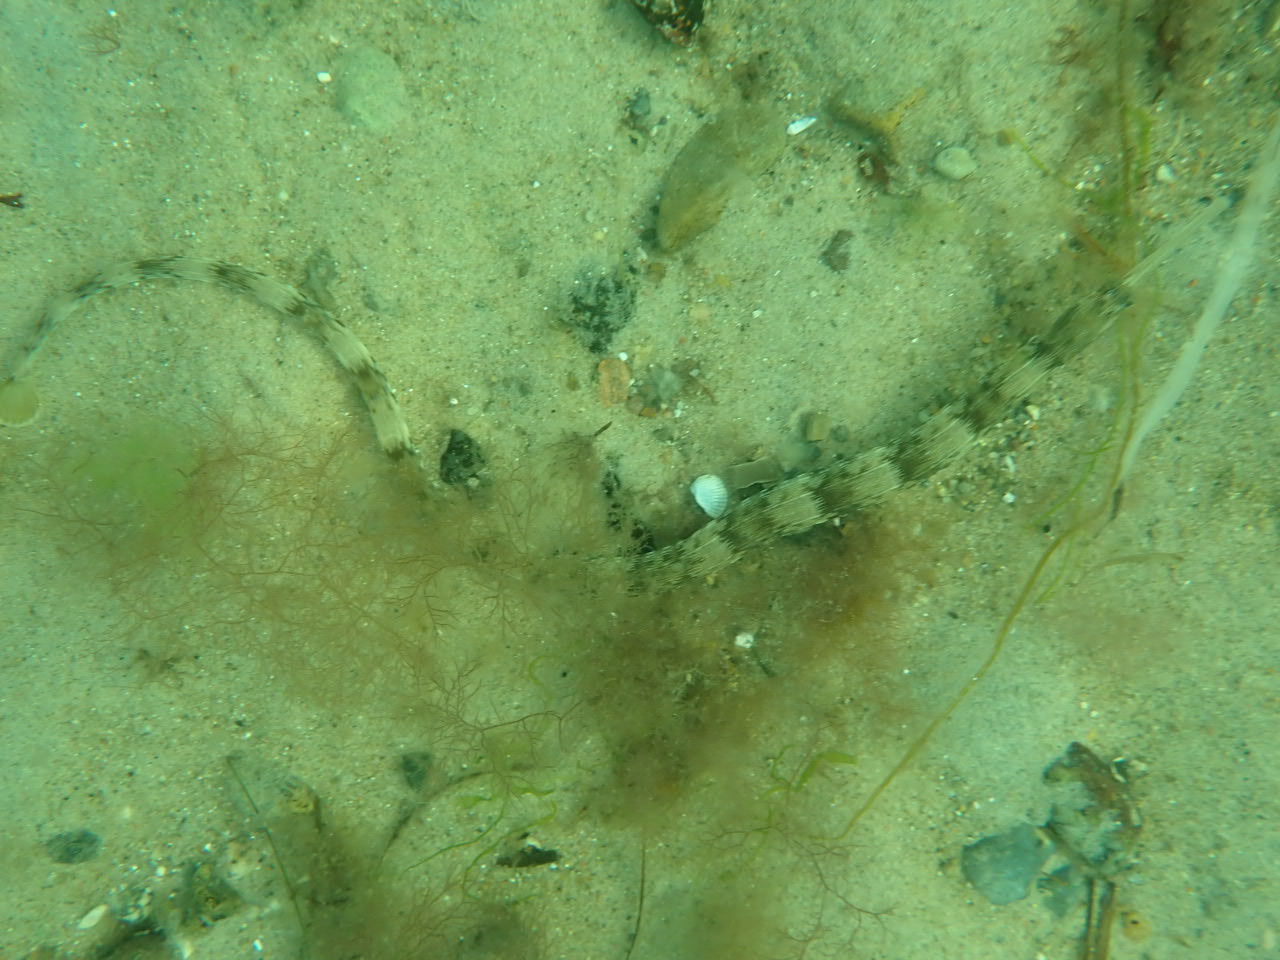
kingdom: Animalia
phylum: Chordata
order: Syngnathiformes
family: Syngnathidae
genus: Syngnathus
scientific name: Syngnathus acus
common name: Stor tangnål
